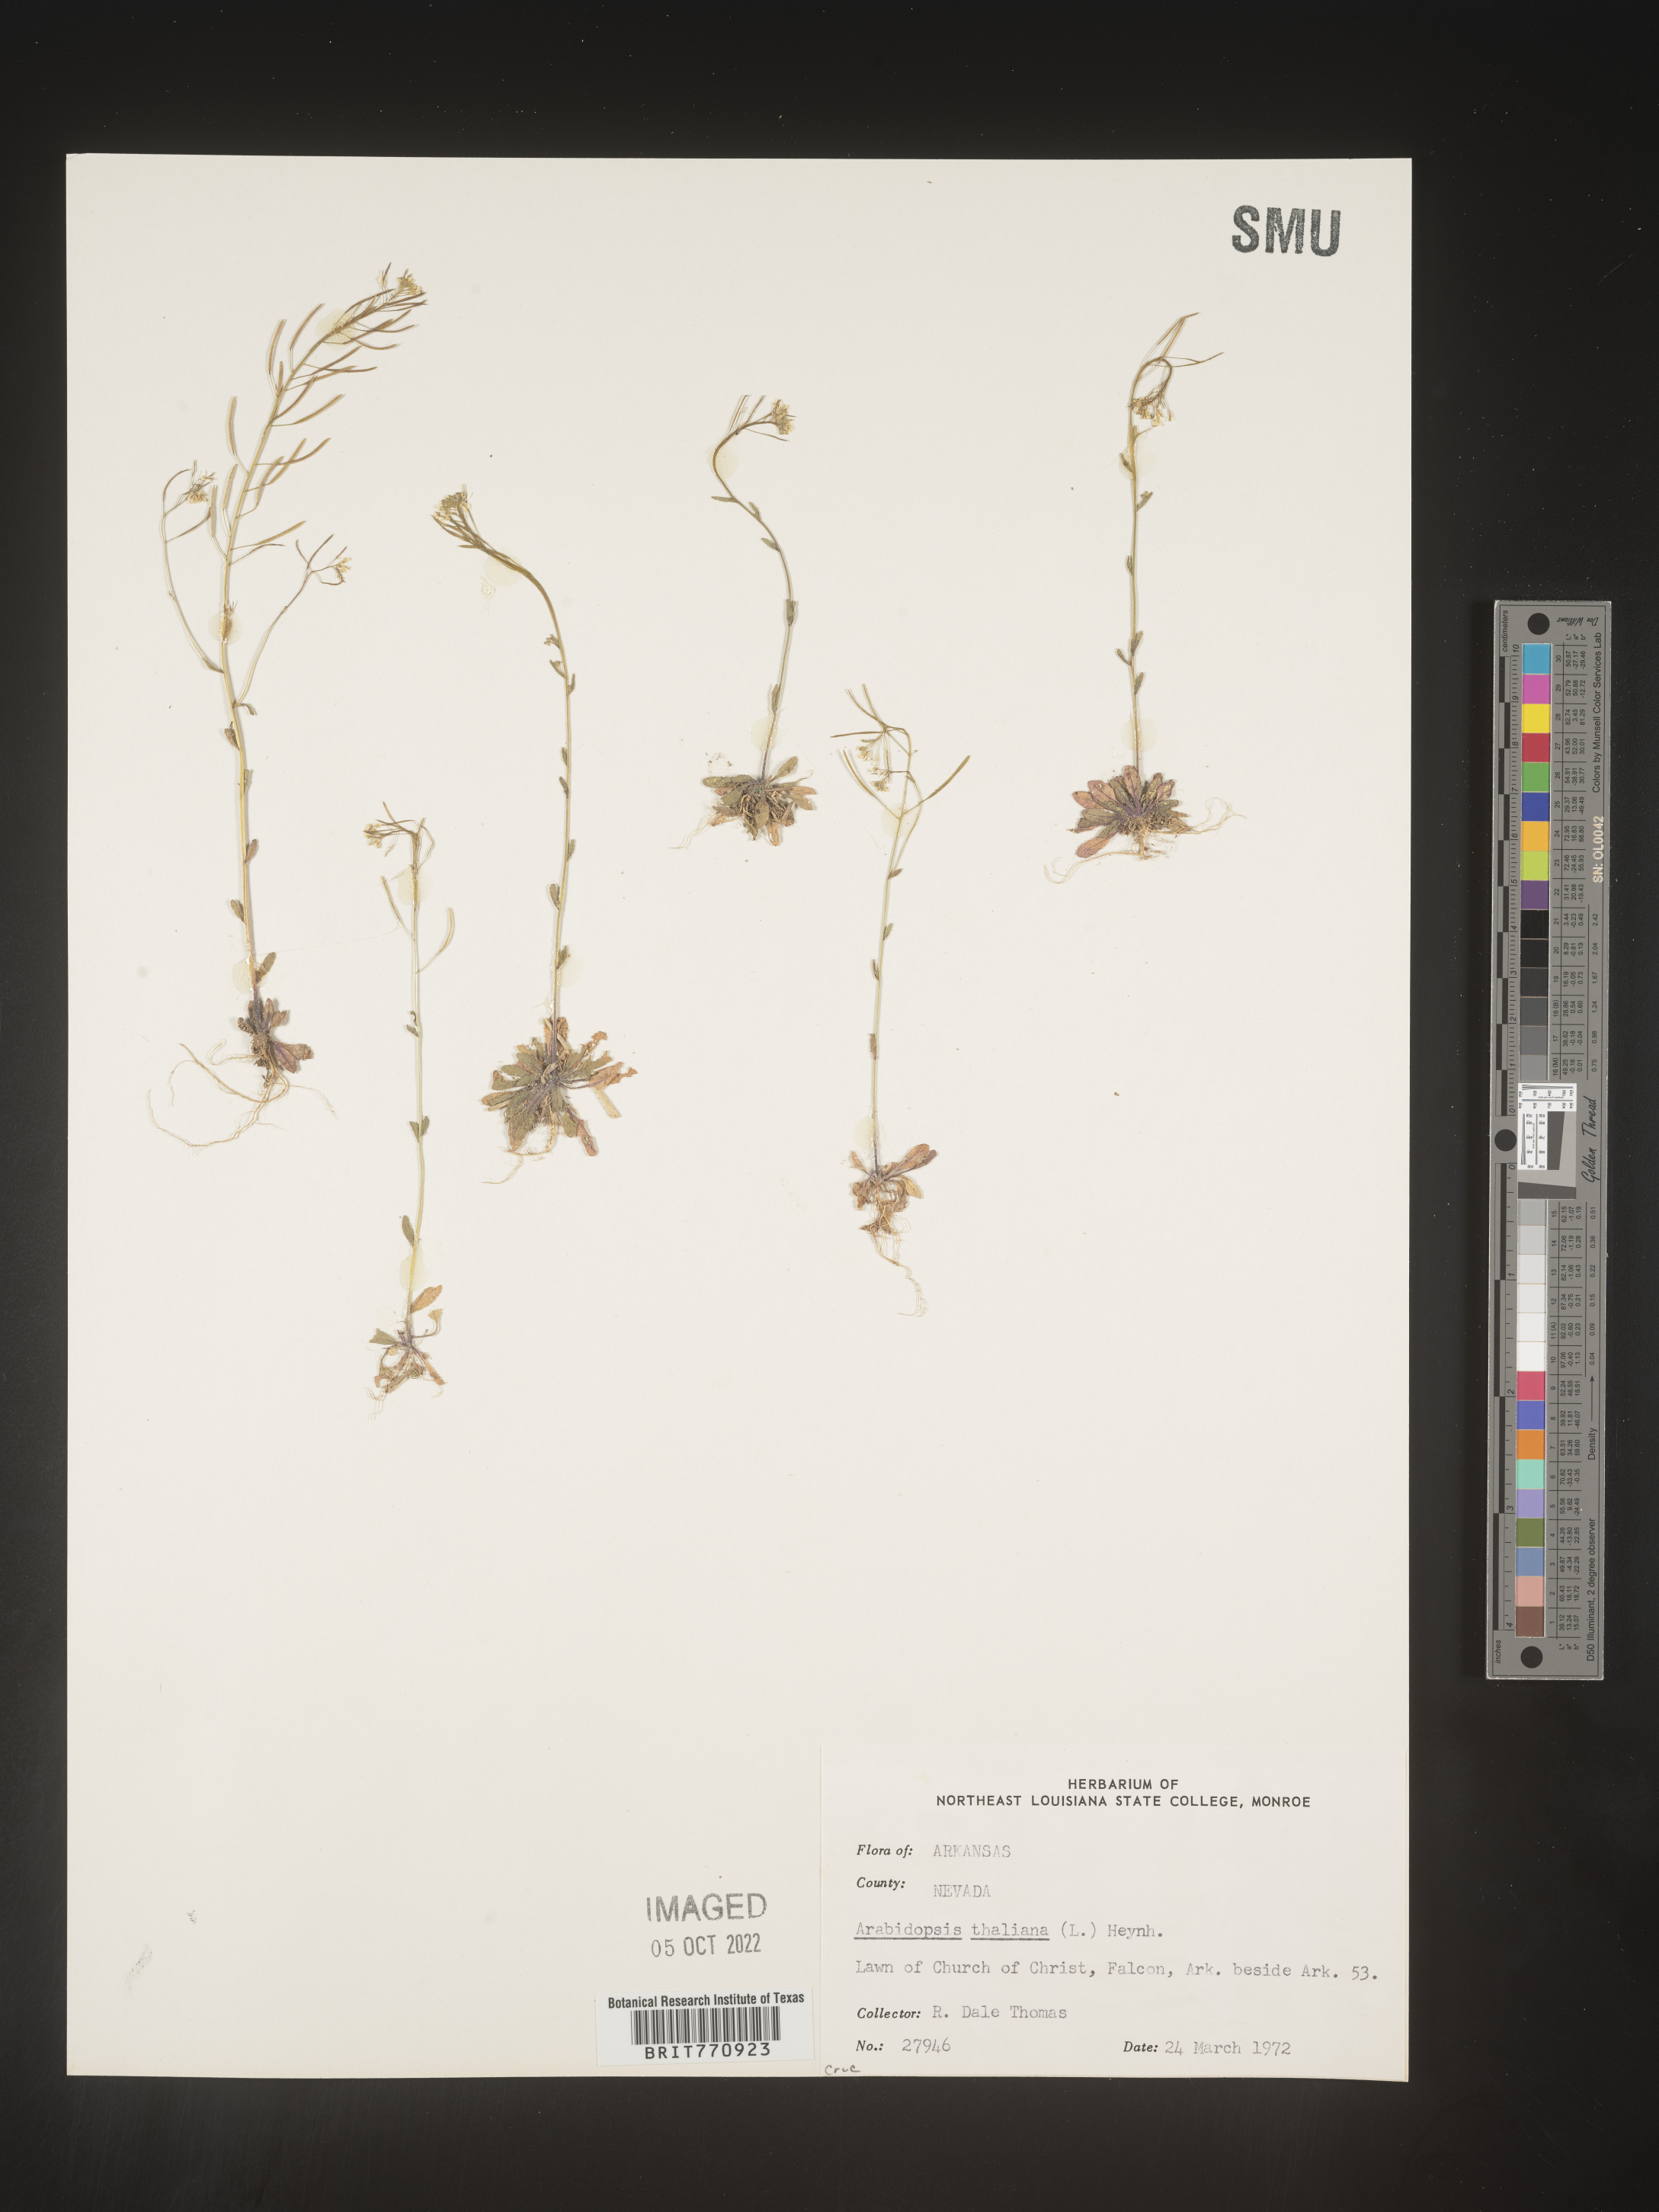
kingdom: Plantae
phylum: Tracheophyta
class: Magnoliopsida
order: Brassicales
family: Brassicaceae
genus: Arabidopsis
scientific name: Arabidopsis thaliana
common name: Thale cress
